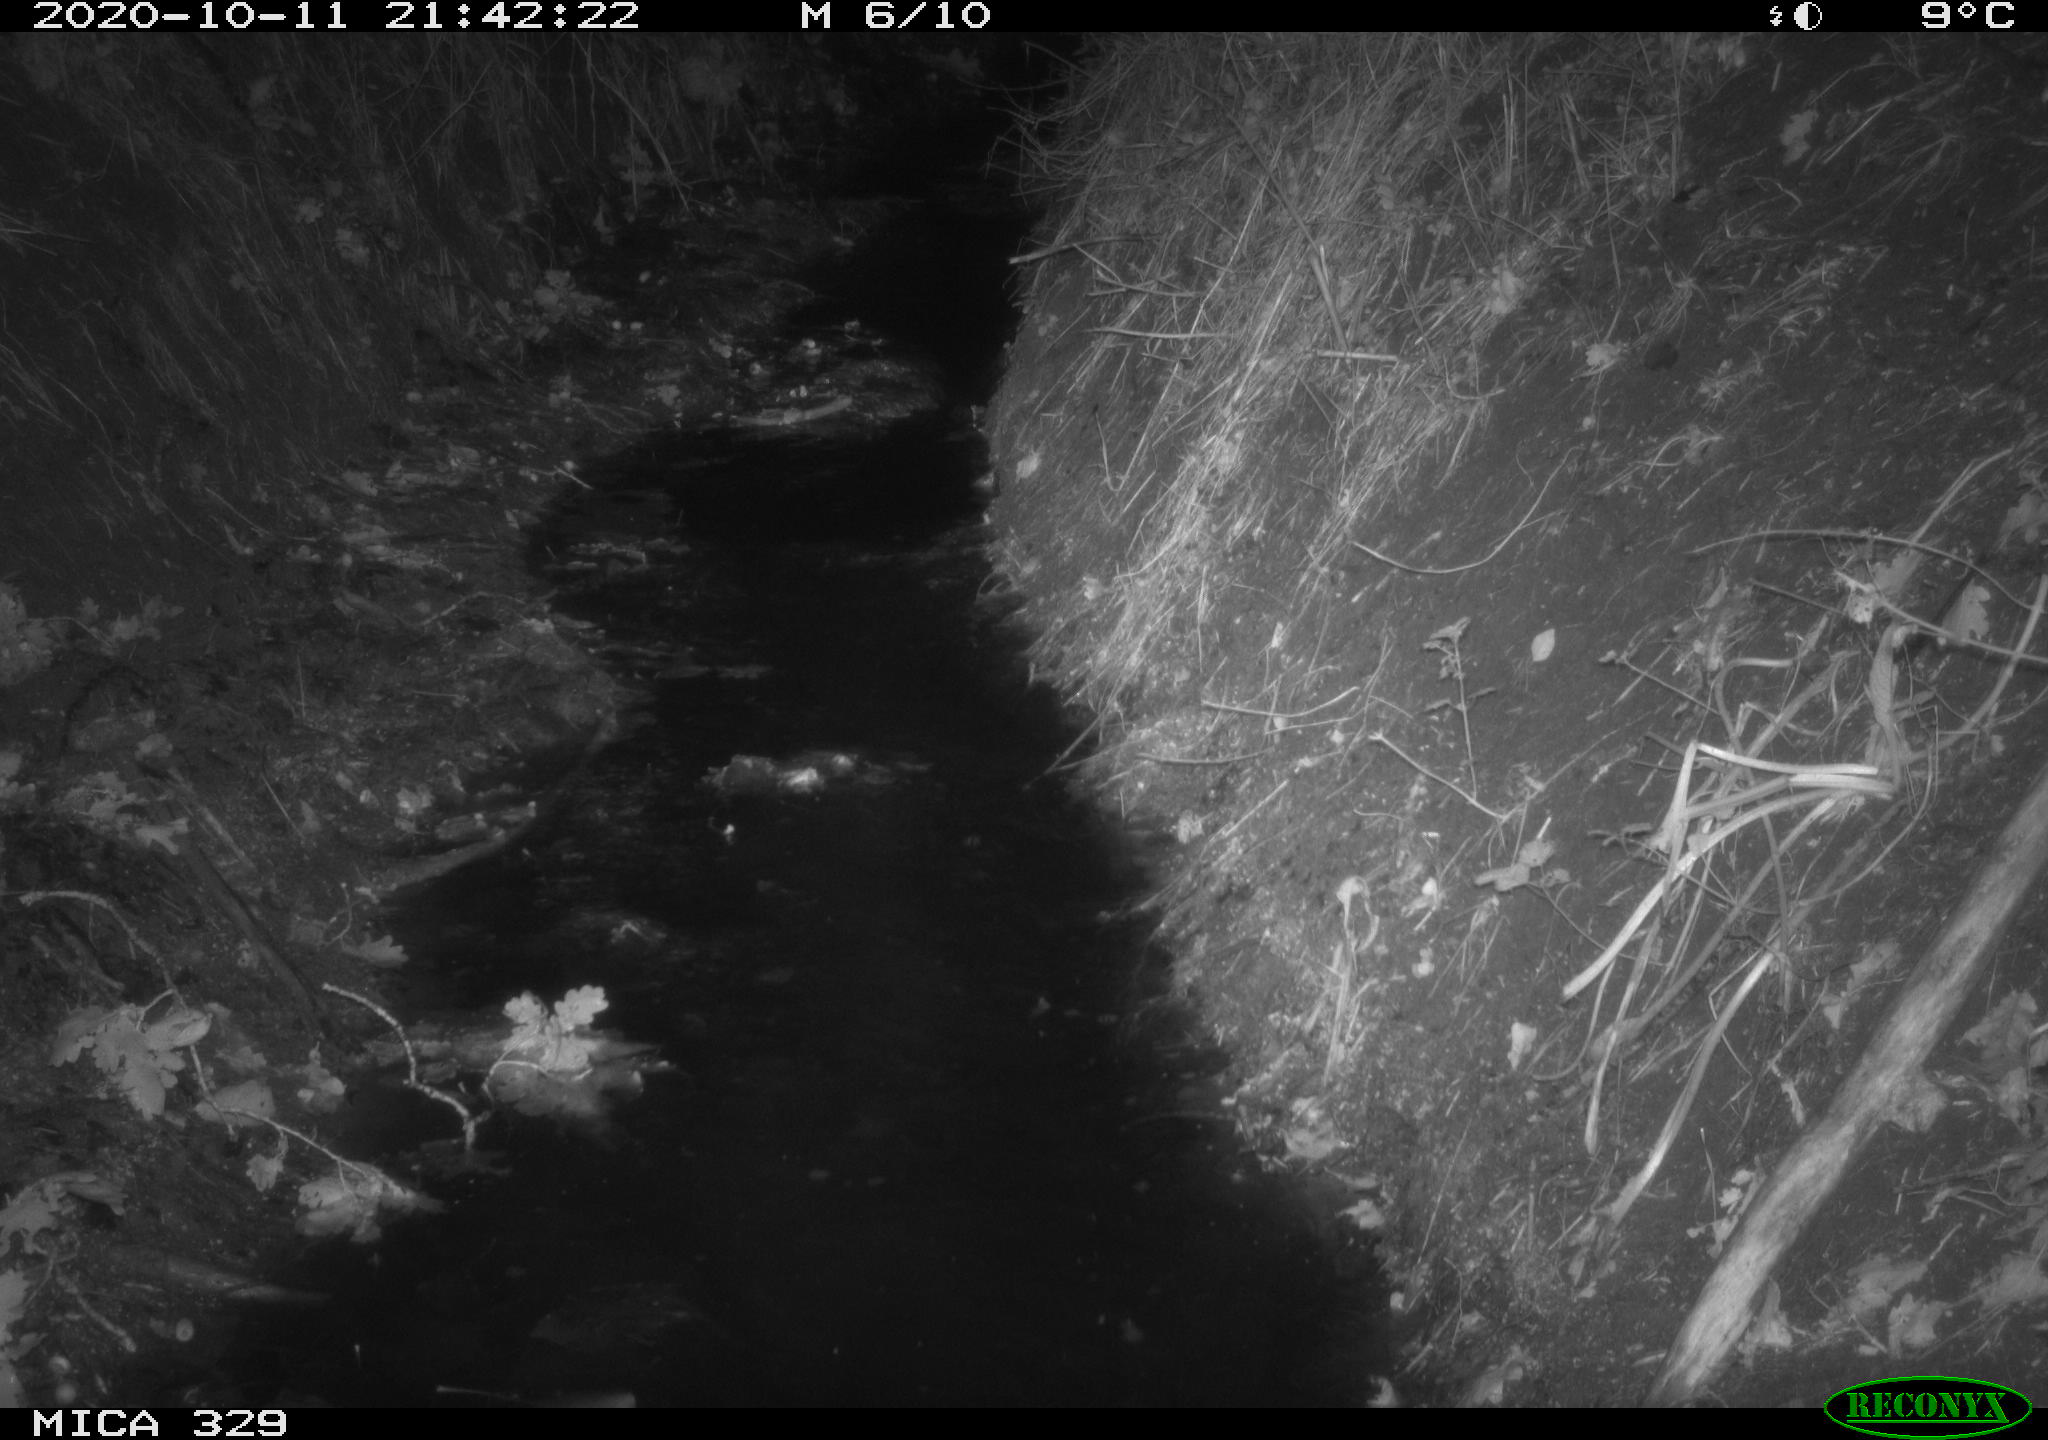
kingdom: Animalia
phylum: Chordata
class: Mammalia
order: Rodentia
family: Myocastoridae
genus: Myocastor
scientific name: Myocastor coypus
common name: Coypu
